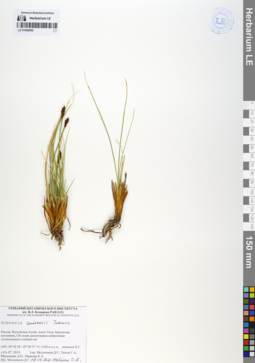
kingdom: Plantae
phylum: Tracheophyta
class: Liliopsida
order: Poales
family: Cyperaceae
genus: Carex
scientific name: Carex borealipolaris
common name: Siberian bog sedge
